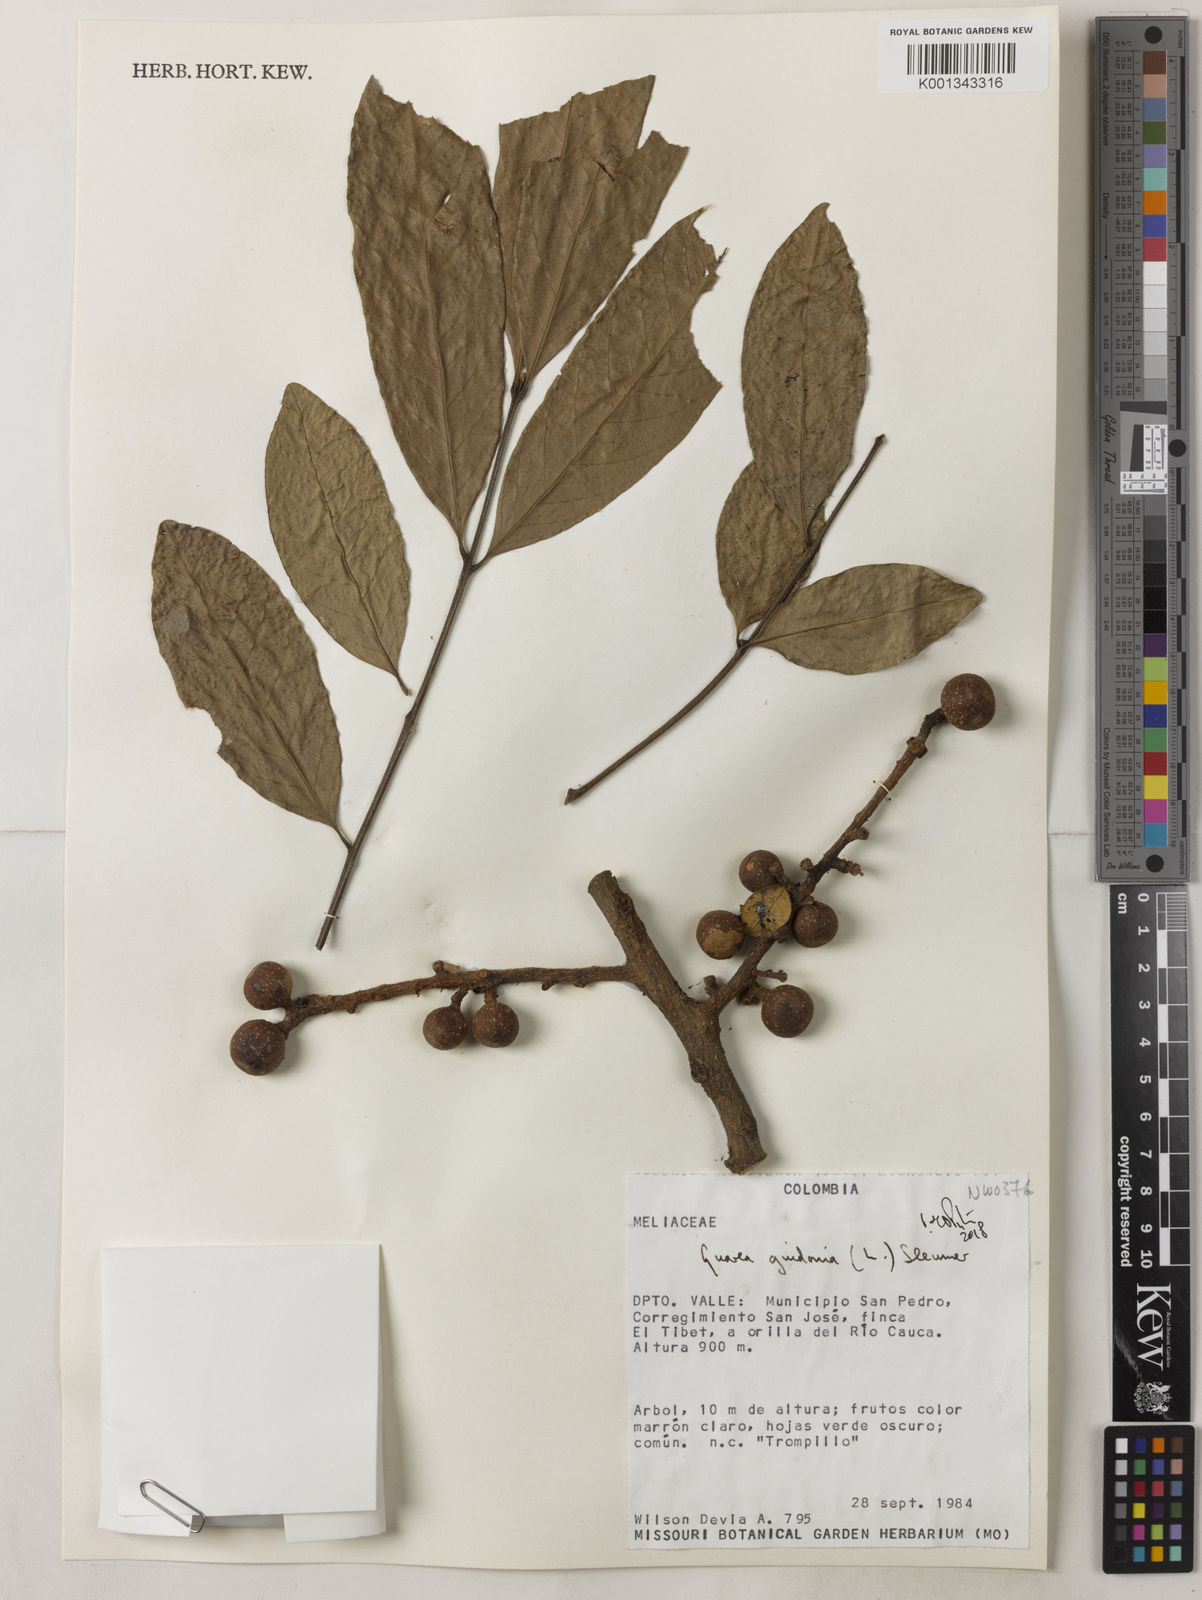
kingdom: Plantae
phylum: Tracheophyta
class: Magnoliopsida
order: Sapindales
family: Meliaceae
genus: Guarea
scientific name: Guarea guidonia
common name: American muskwood
